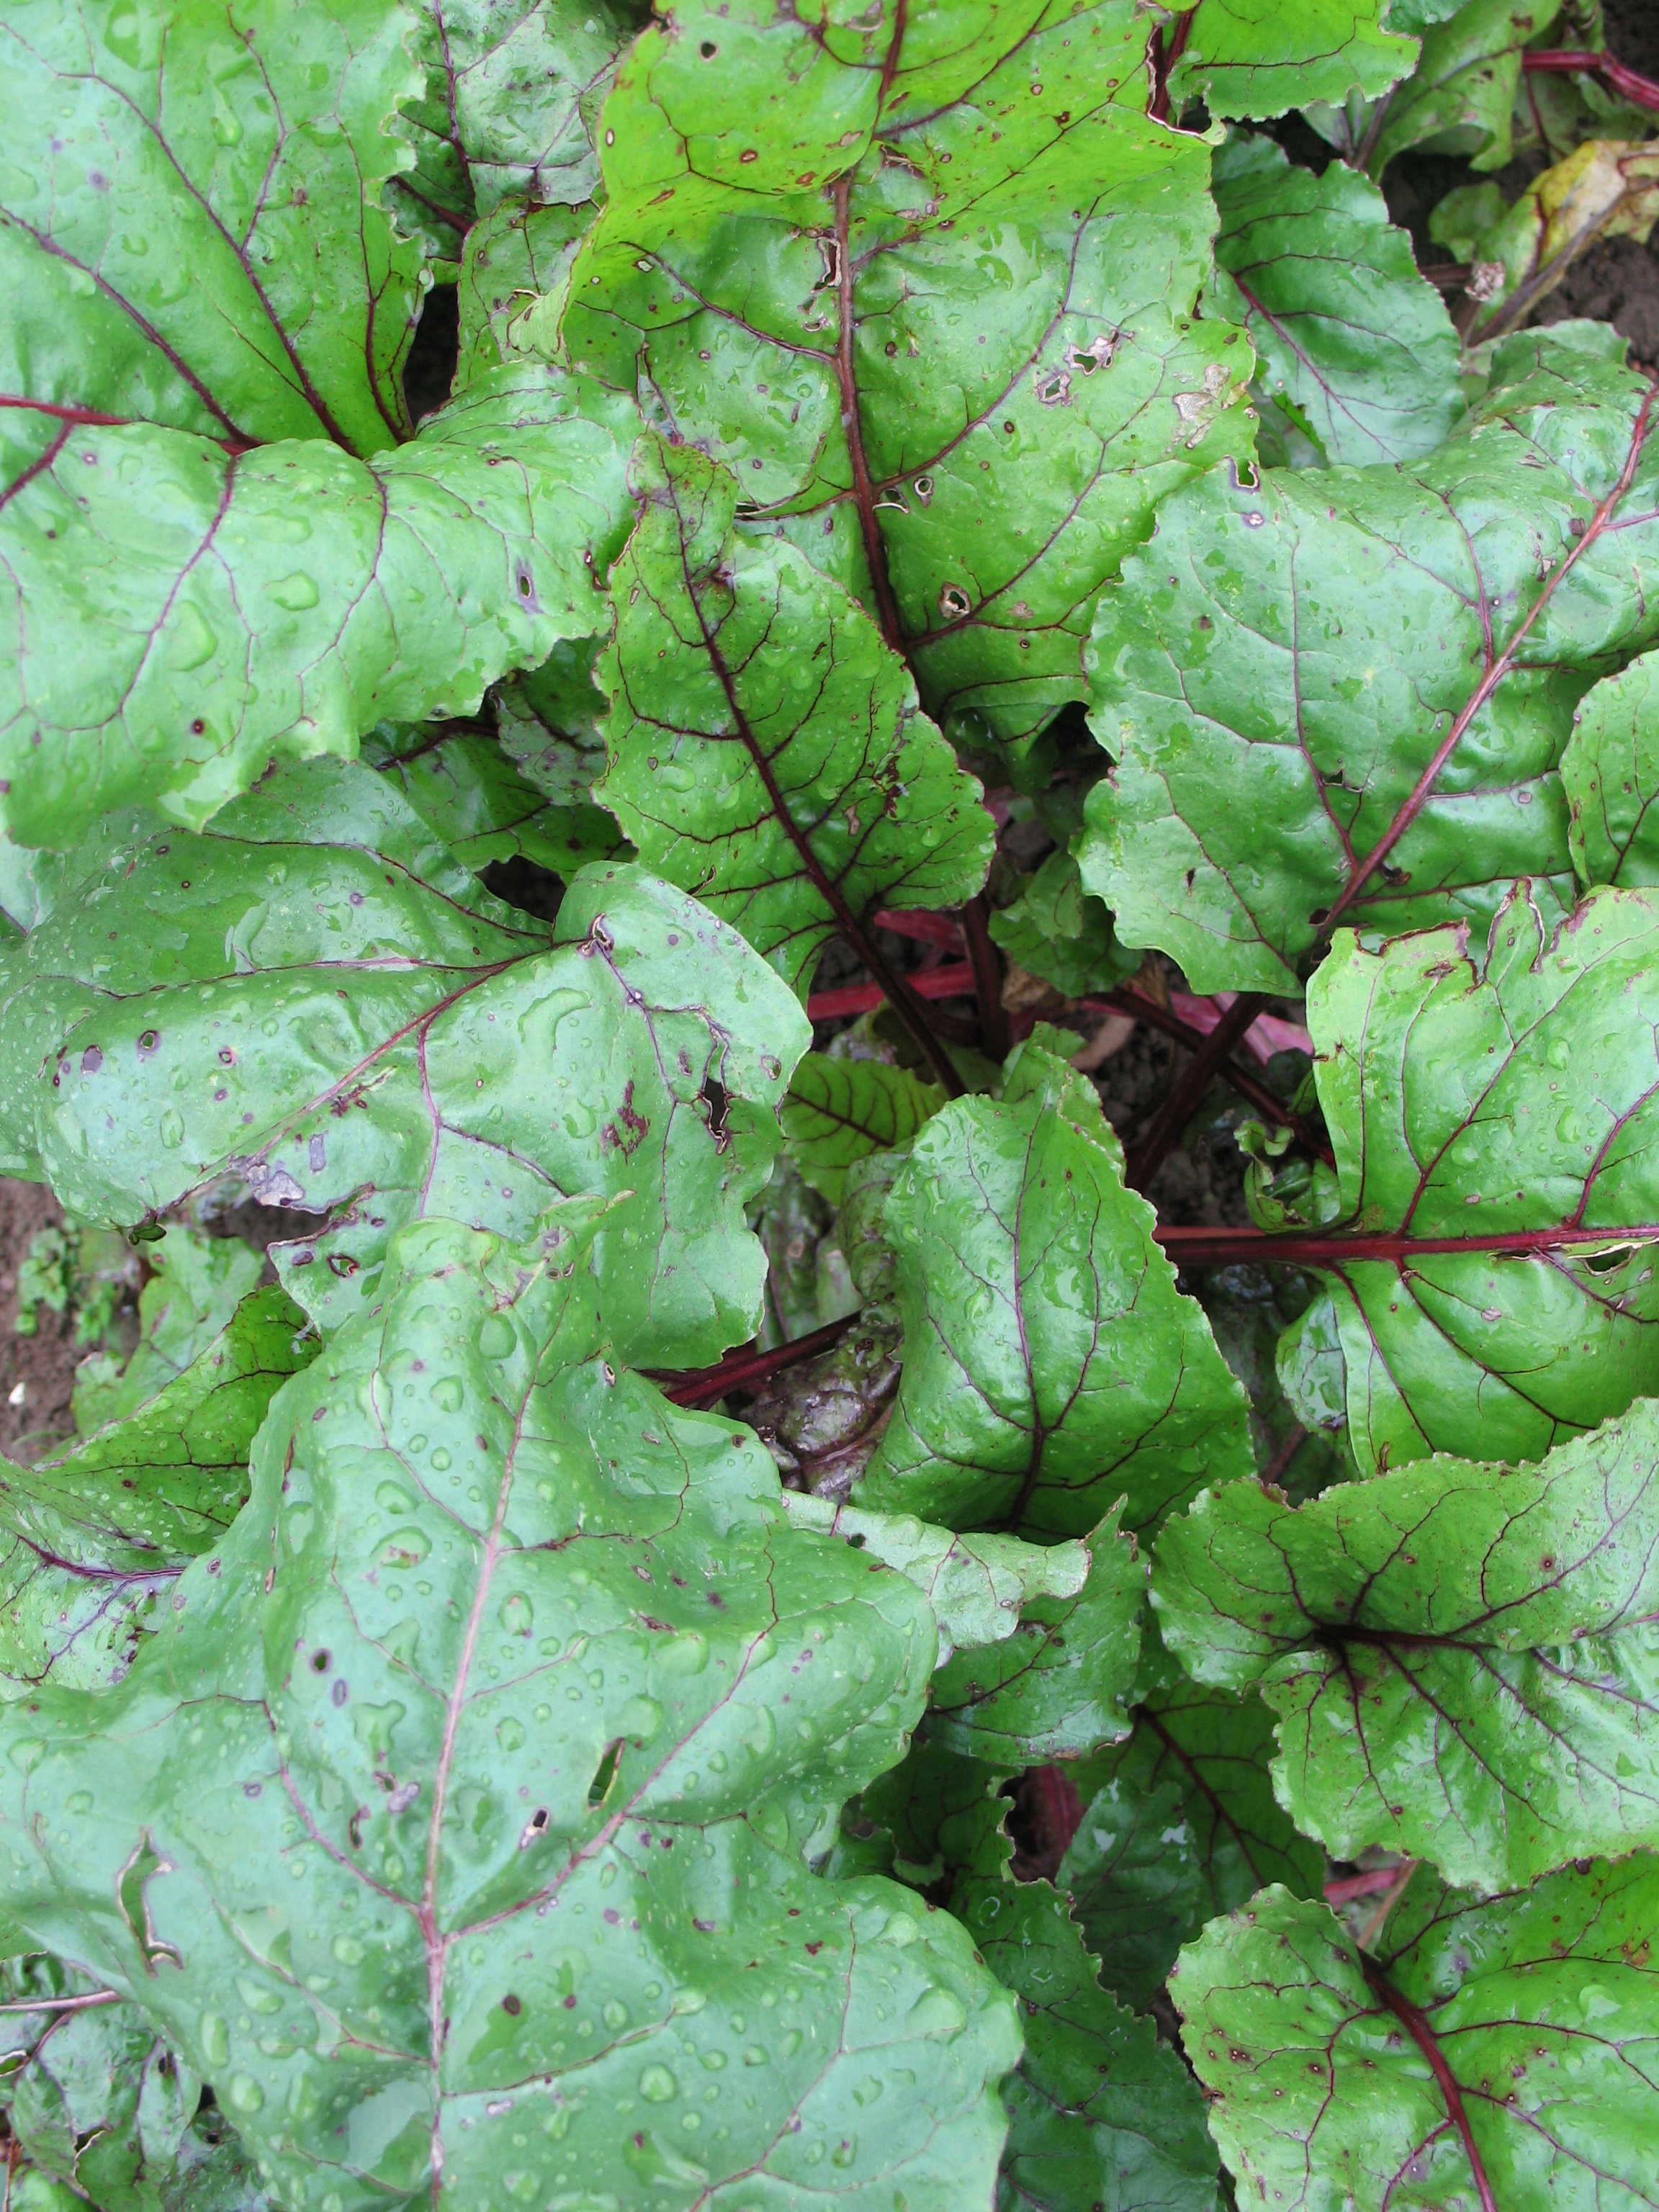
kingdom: Plantae
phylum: Tracheophyta
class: Magnoliopsida
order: Caryophyllales
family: Amaranthaceae
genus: Beta
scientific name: Beta vulgaris
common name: Beet
